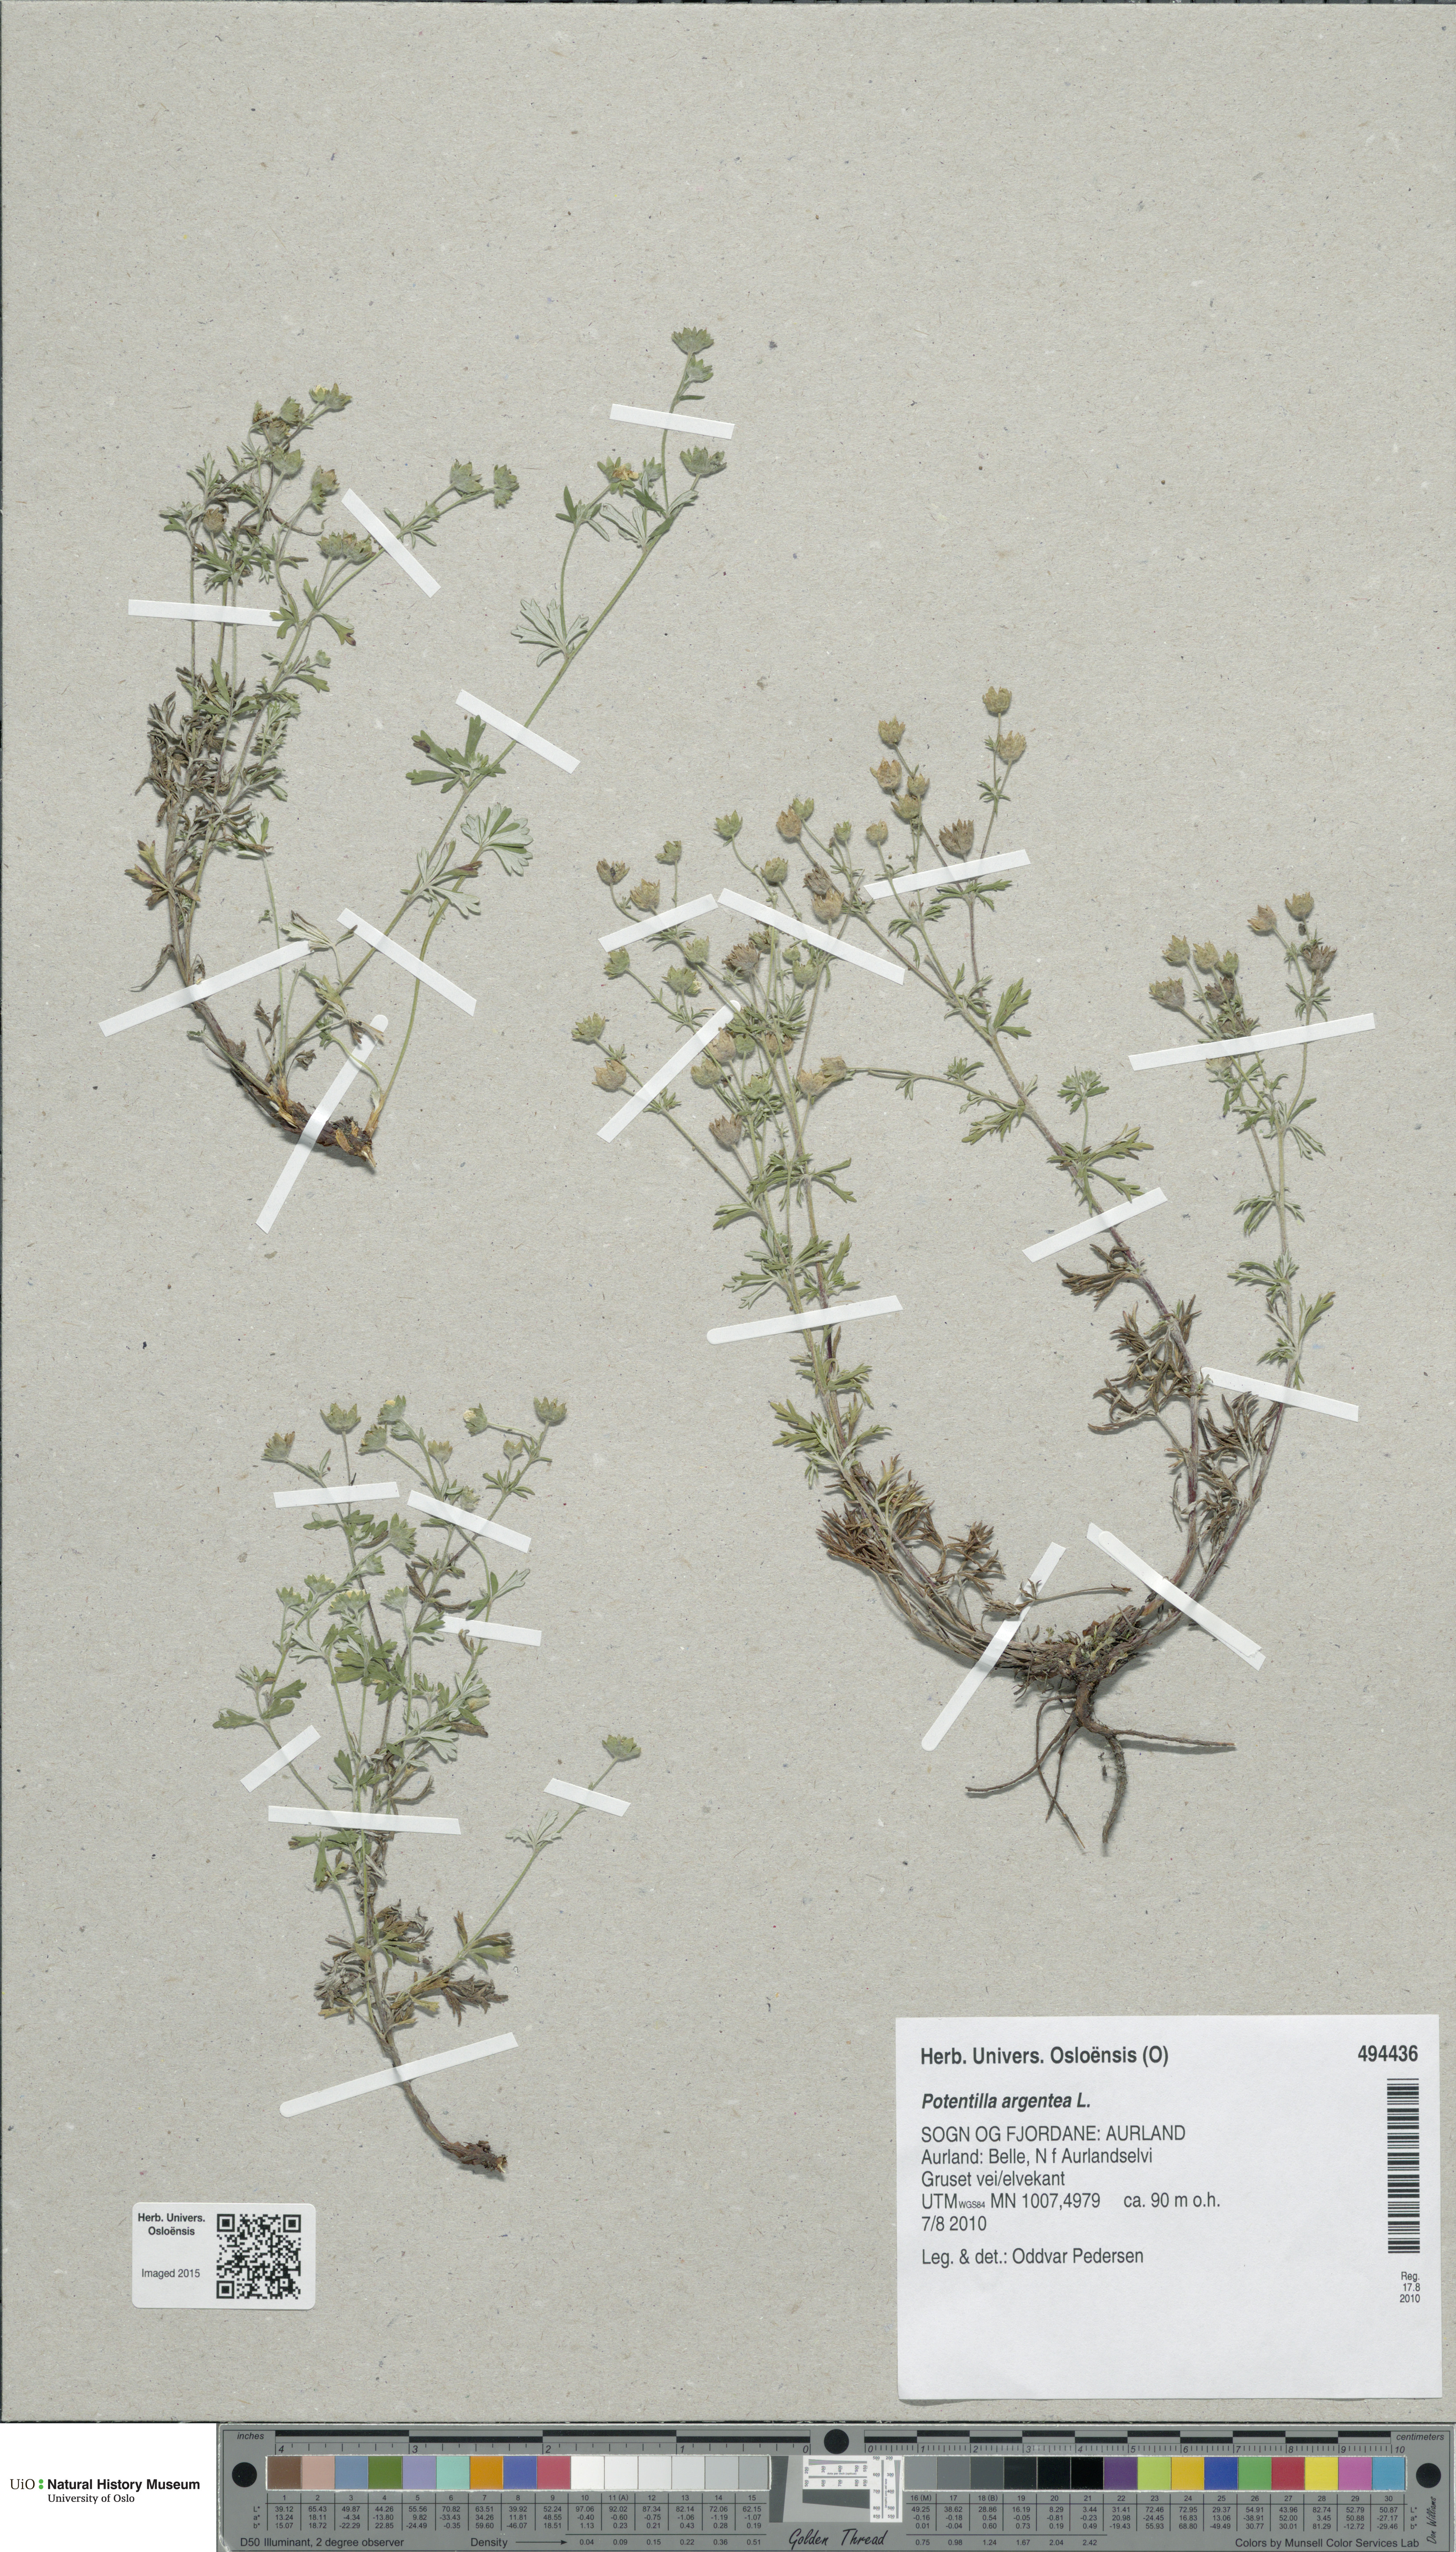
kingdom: Plantae
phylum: Tracheophyta
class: Magnoliopsida
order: Rosales
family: Rosaceae
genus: Potentilla
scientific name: Potentilla argentea
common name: Hoary cinquefoil
